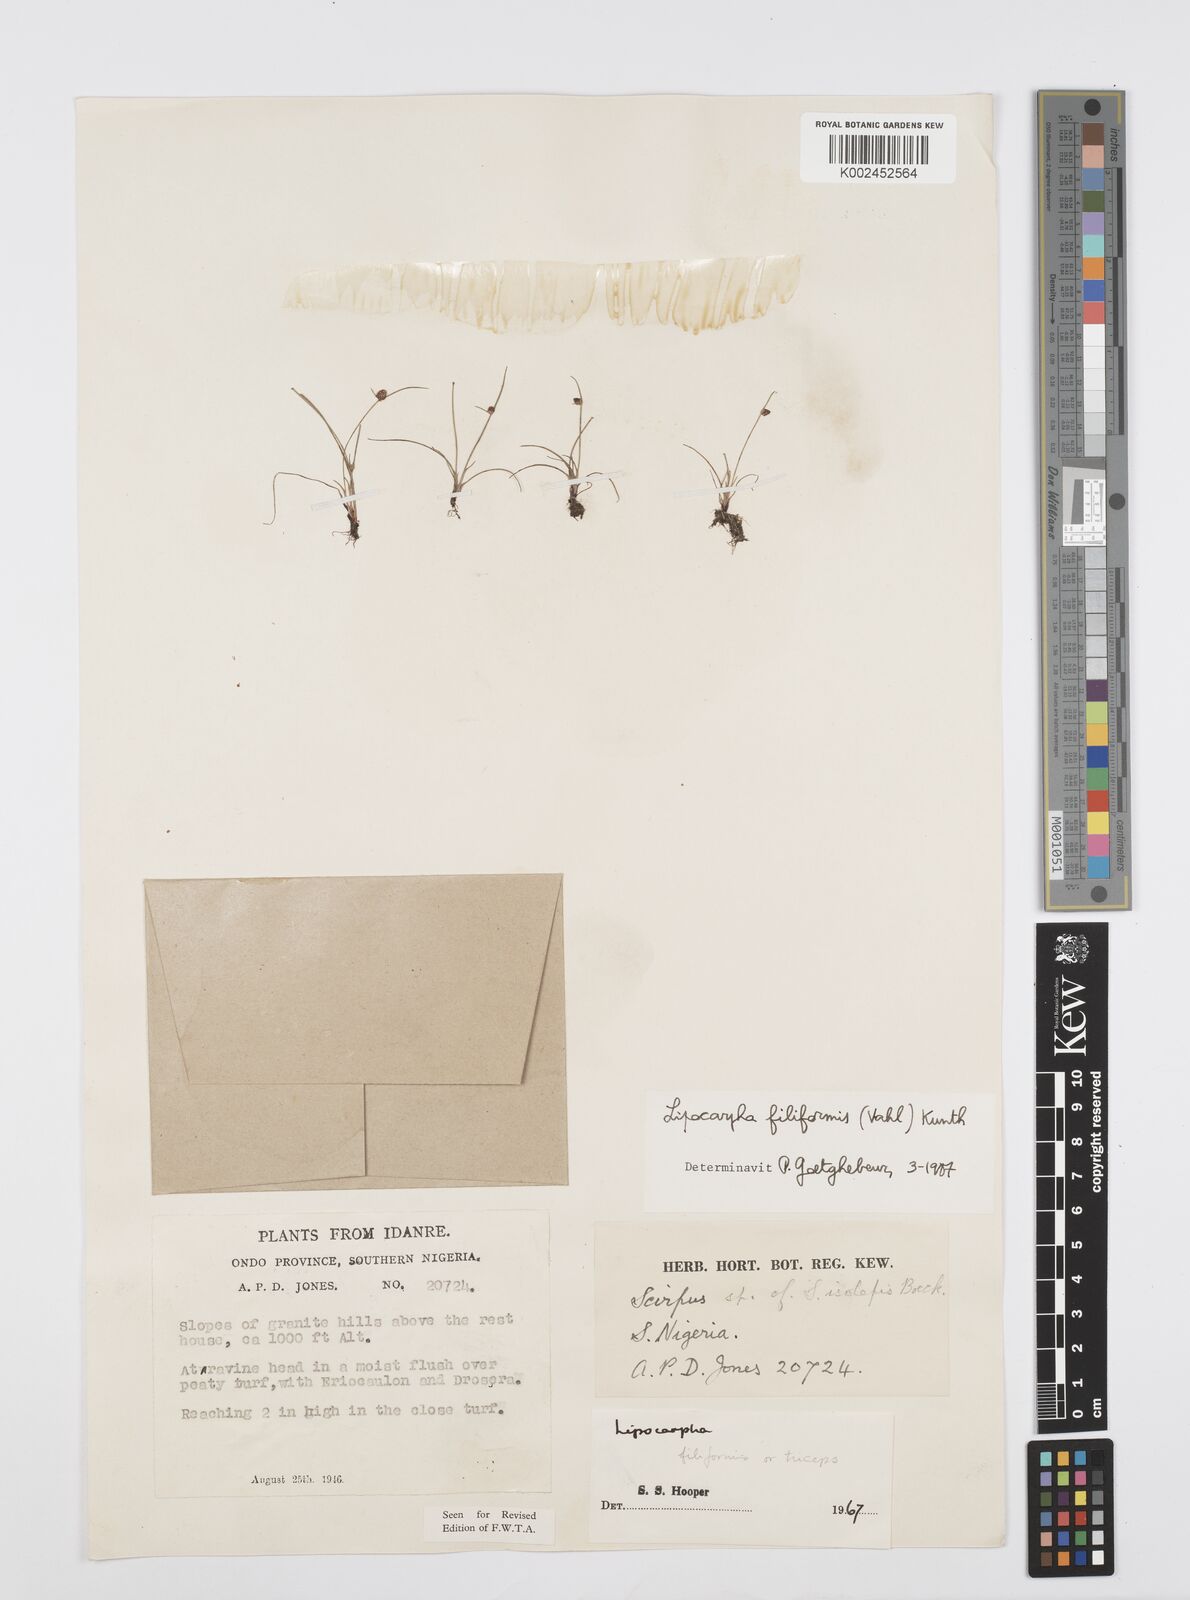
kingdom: Plantae
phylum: Tracheophyta
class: Liliopsida
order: Poales
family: Cyperaceae
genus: Cyperus
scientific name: Cyperus filiformis
